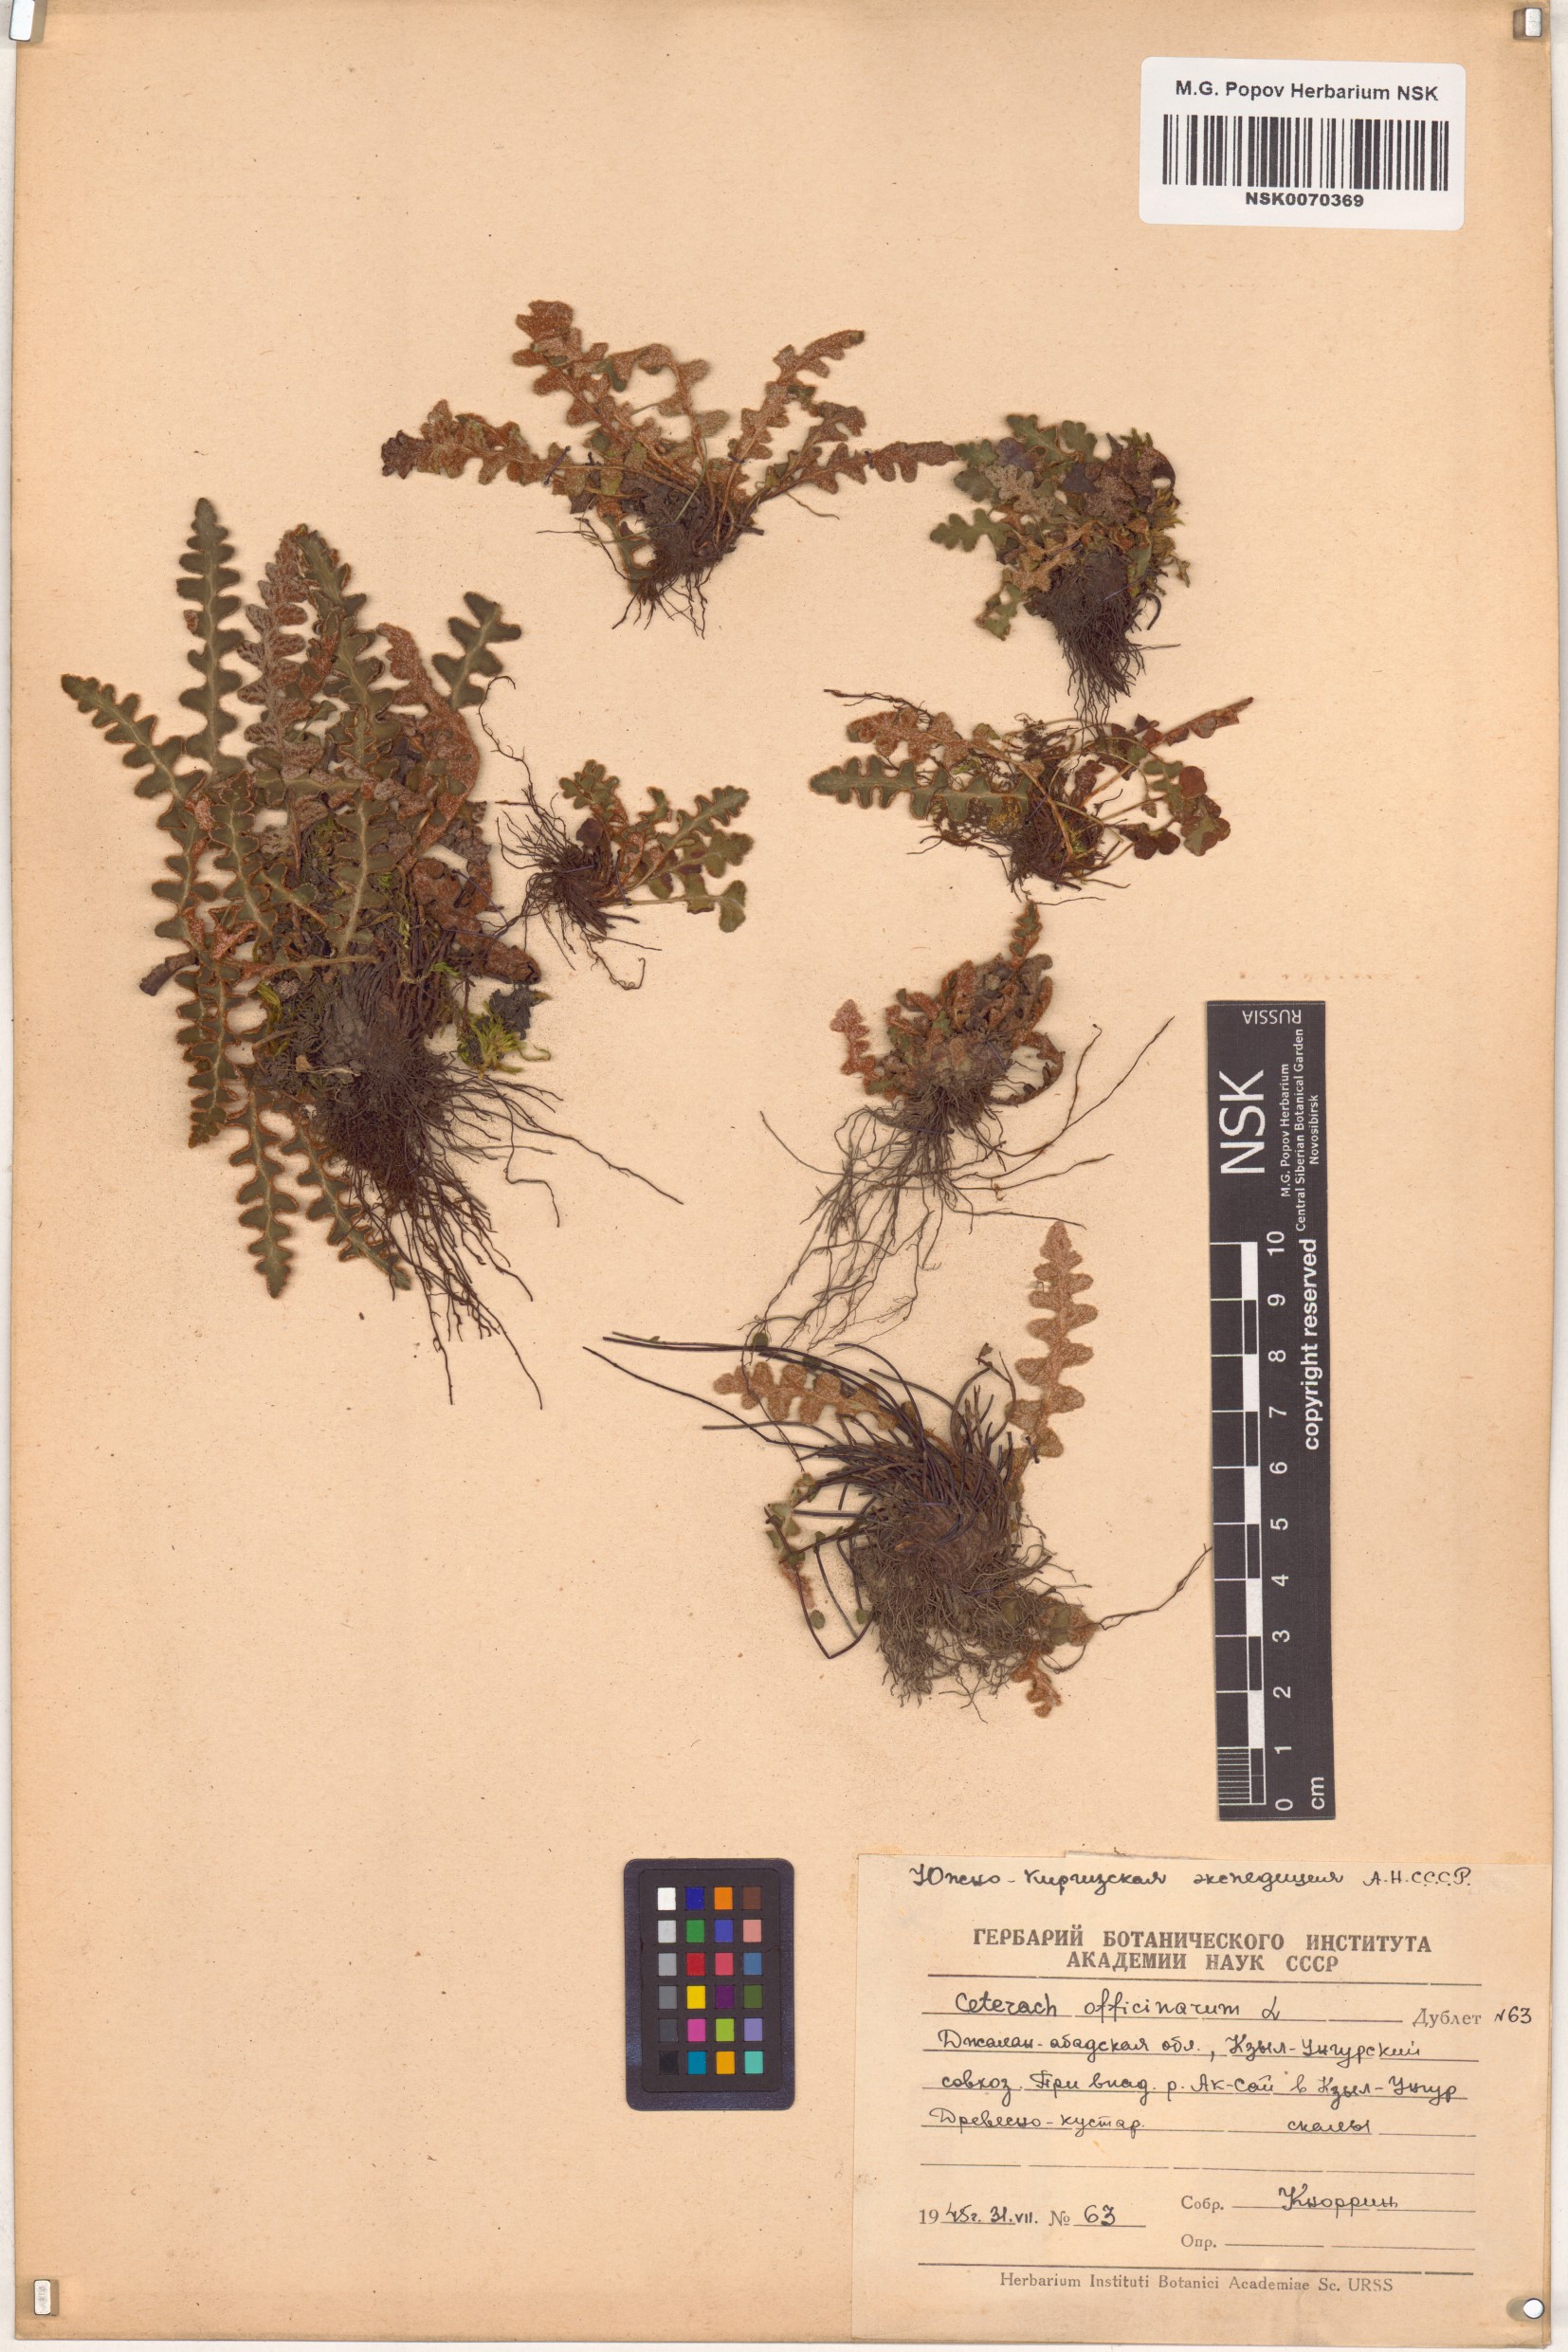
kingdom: Plantae
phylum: Tracheophyta
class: Polypodiopsida
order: Polypodiales
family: Aspleniaceae
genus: Asplenium
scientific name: Asplenium ceterach
